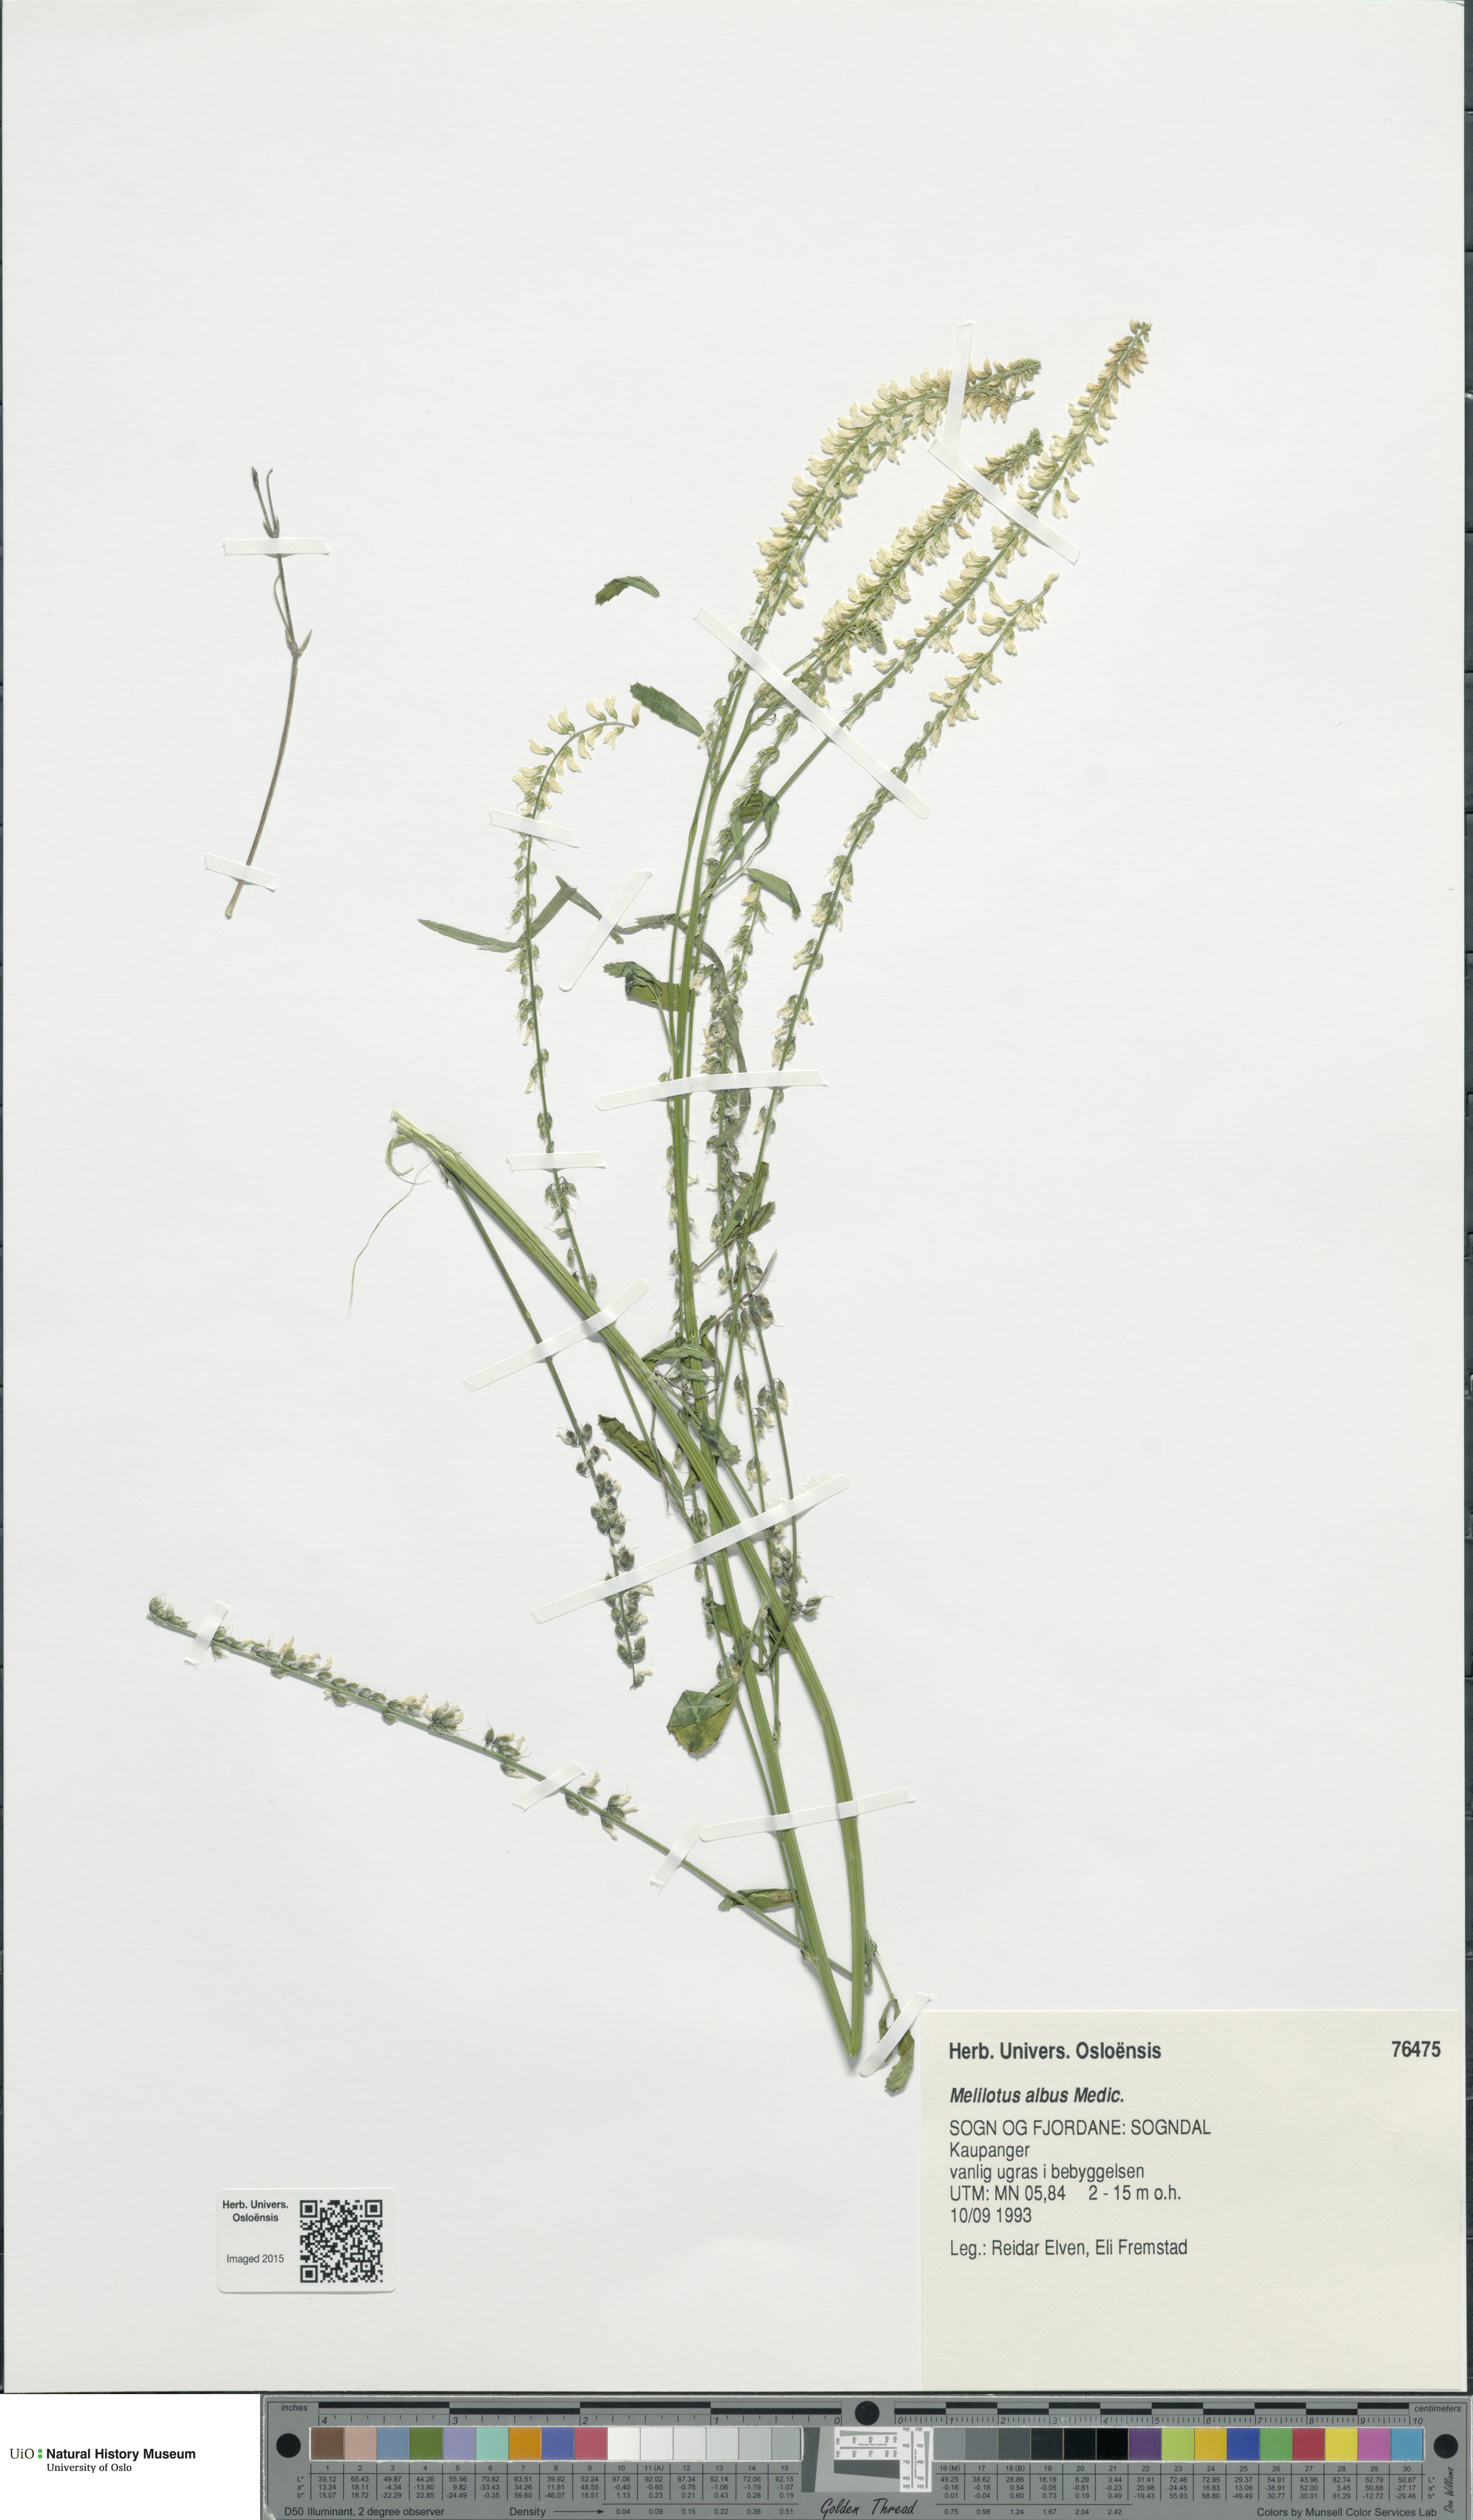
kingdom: Plantae
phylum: Tracheophyta
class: Magnoliopsida
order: Fabales
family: Fabaceae
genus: Melilotus
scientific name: Melilotus albus
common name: White melilot
